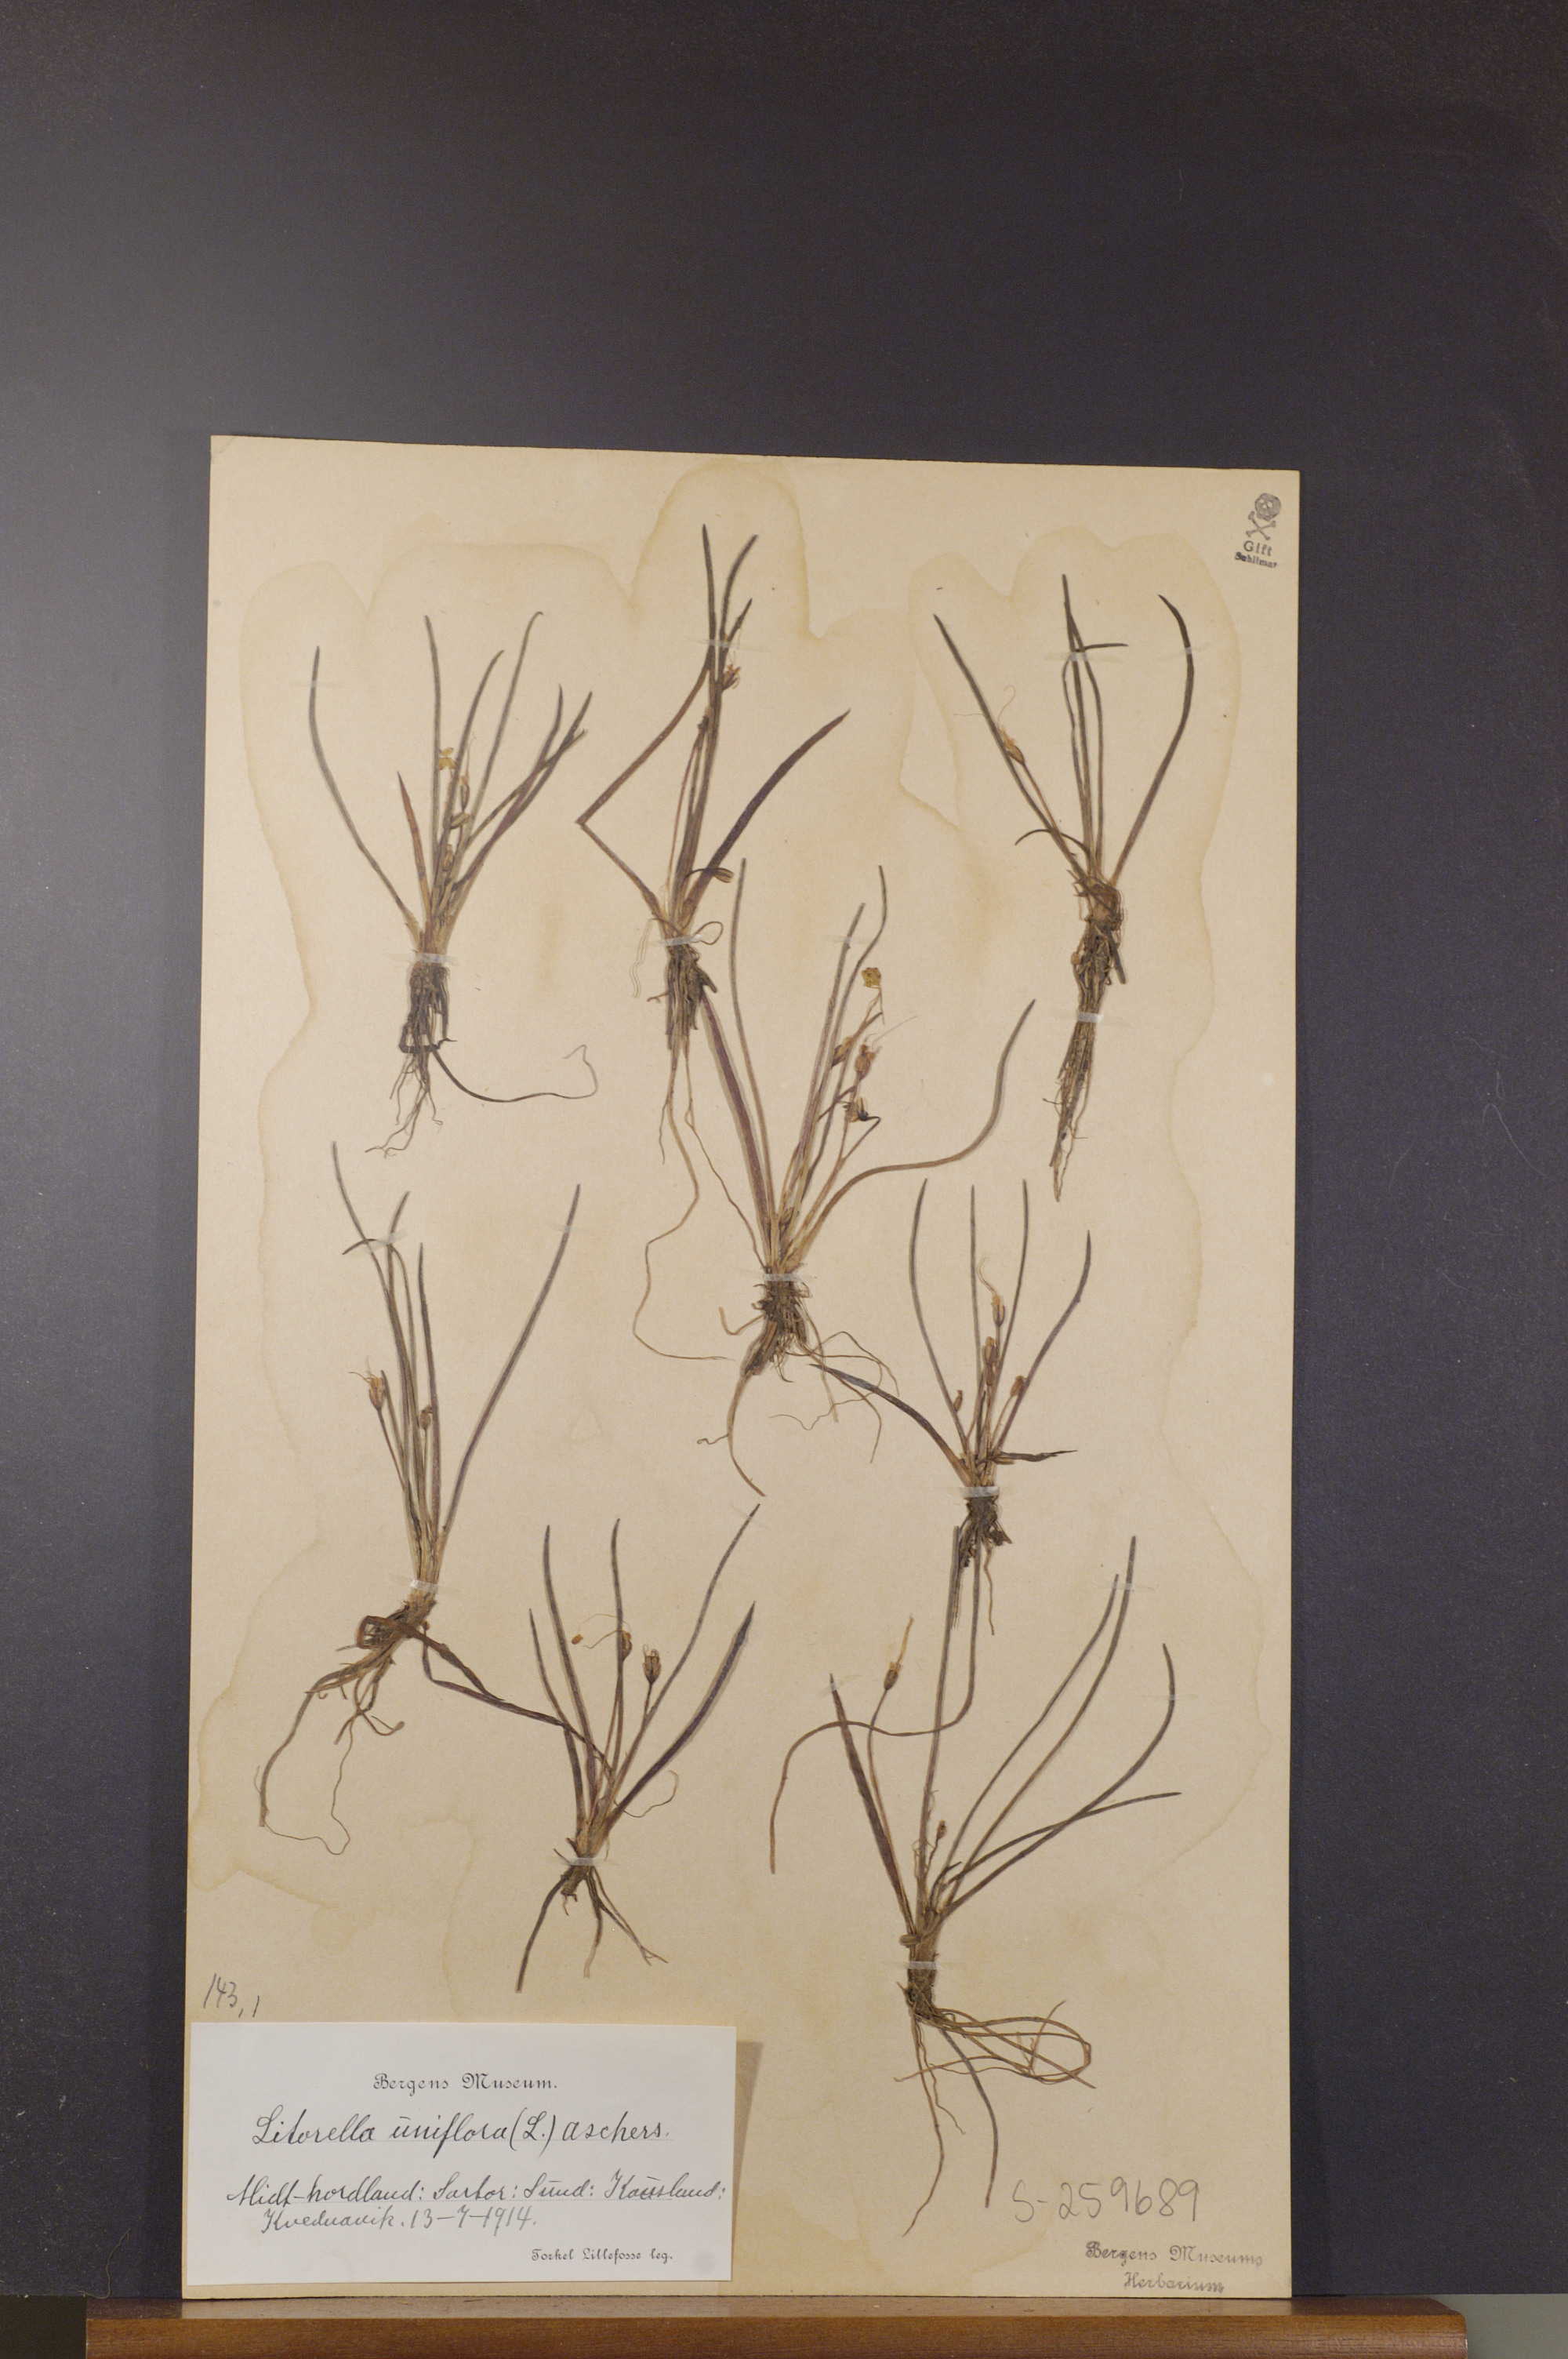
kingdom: Plantae
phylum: Tracheophyta
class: Magnoliopsida
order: Lamiales
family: Plantaginaceae
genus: Littorella
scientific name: Littorella uniflora
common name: Shoreweed
